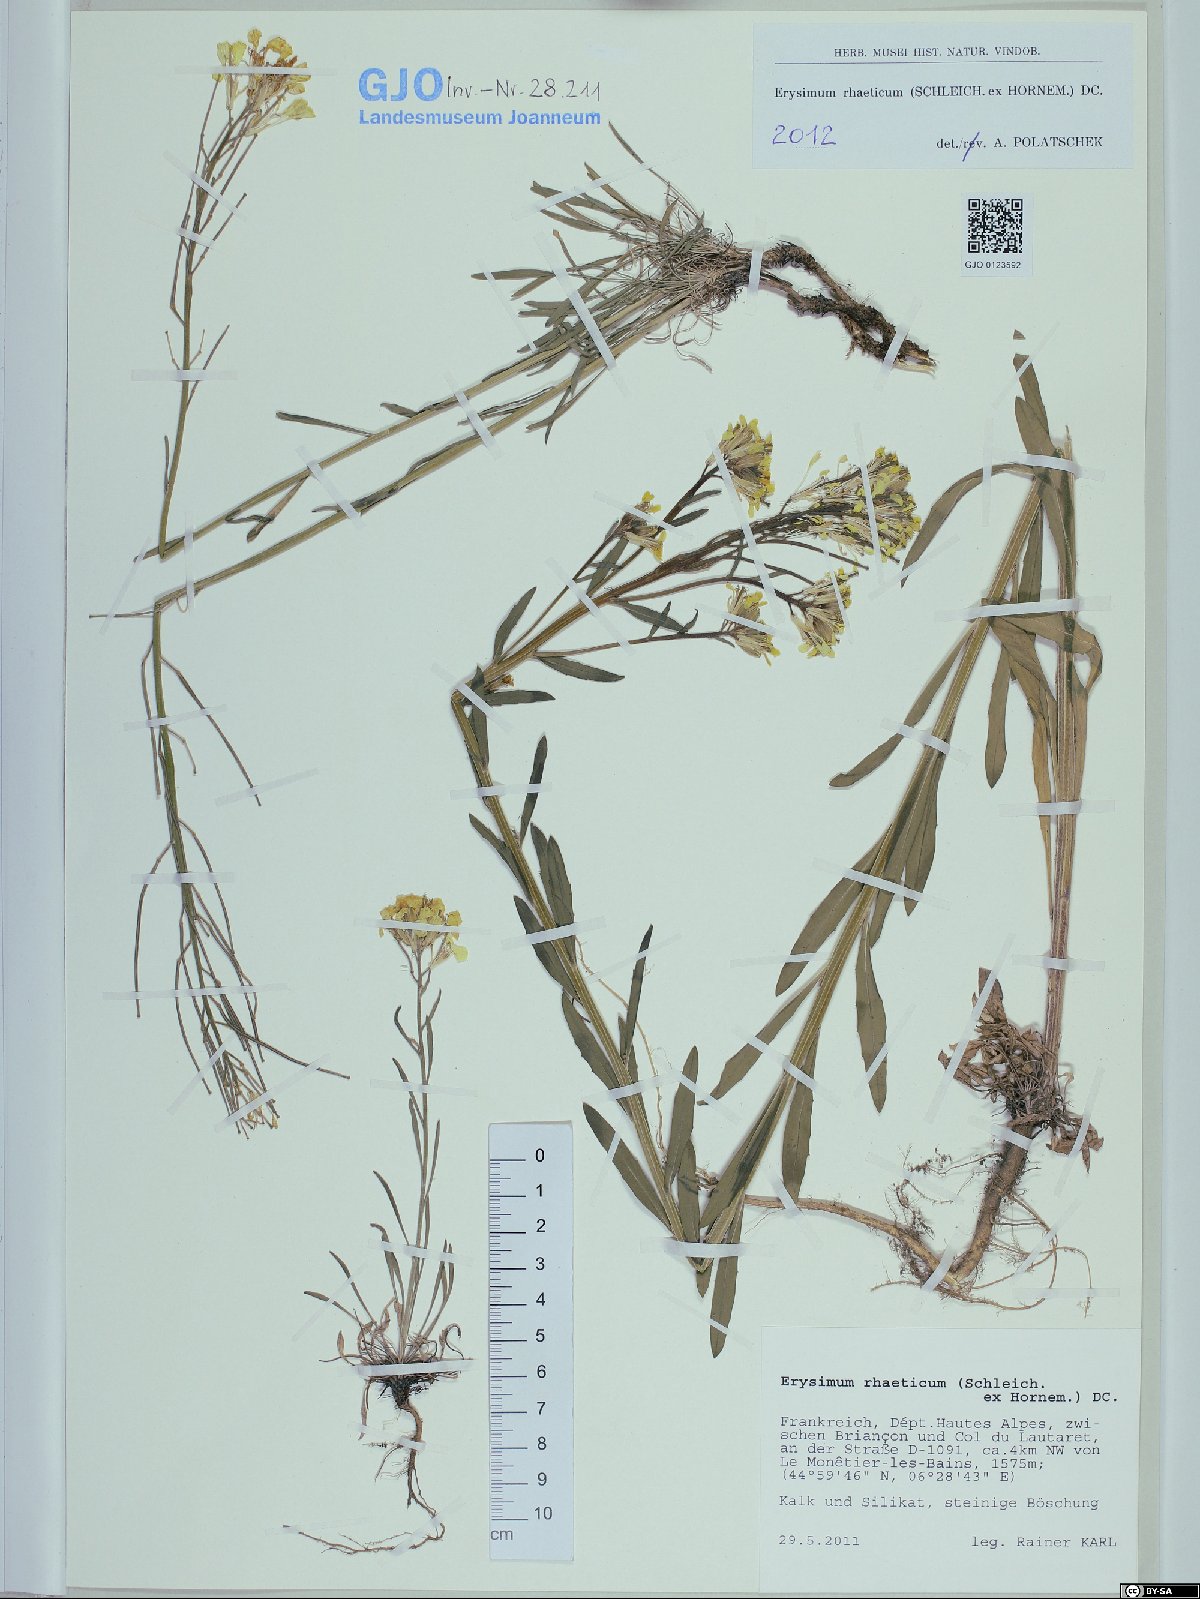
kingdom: Plantae
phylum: Tracheophyta
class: Magnoliopsida
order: Brassicales
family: Brassicaceae
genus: Erysimum
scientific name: Erysimum rhaeticum
